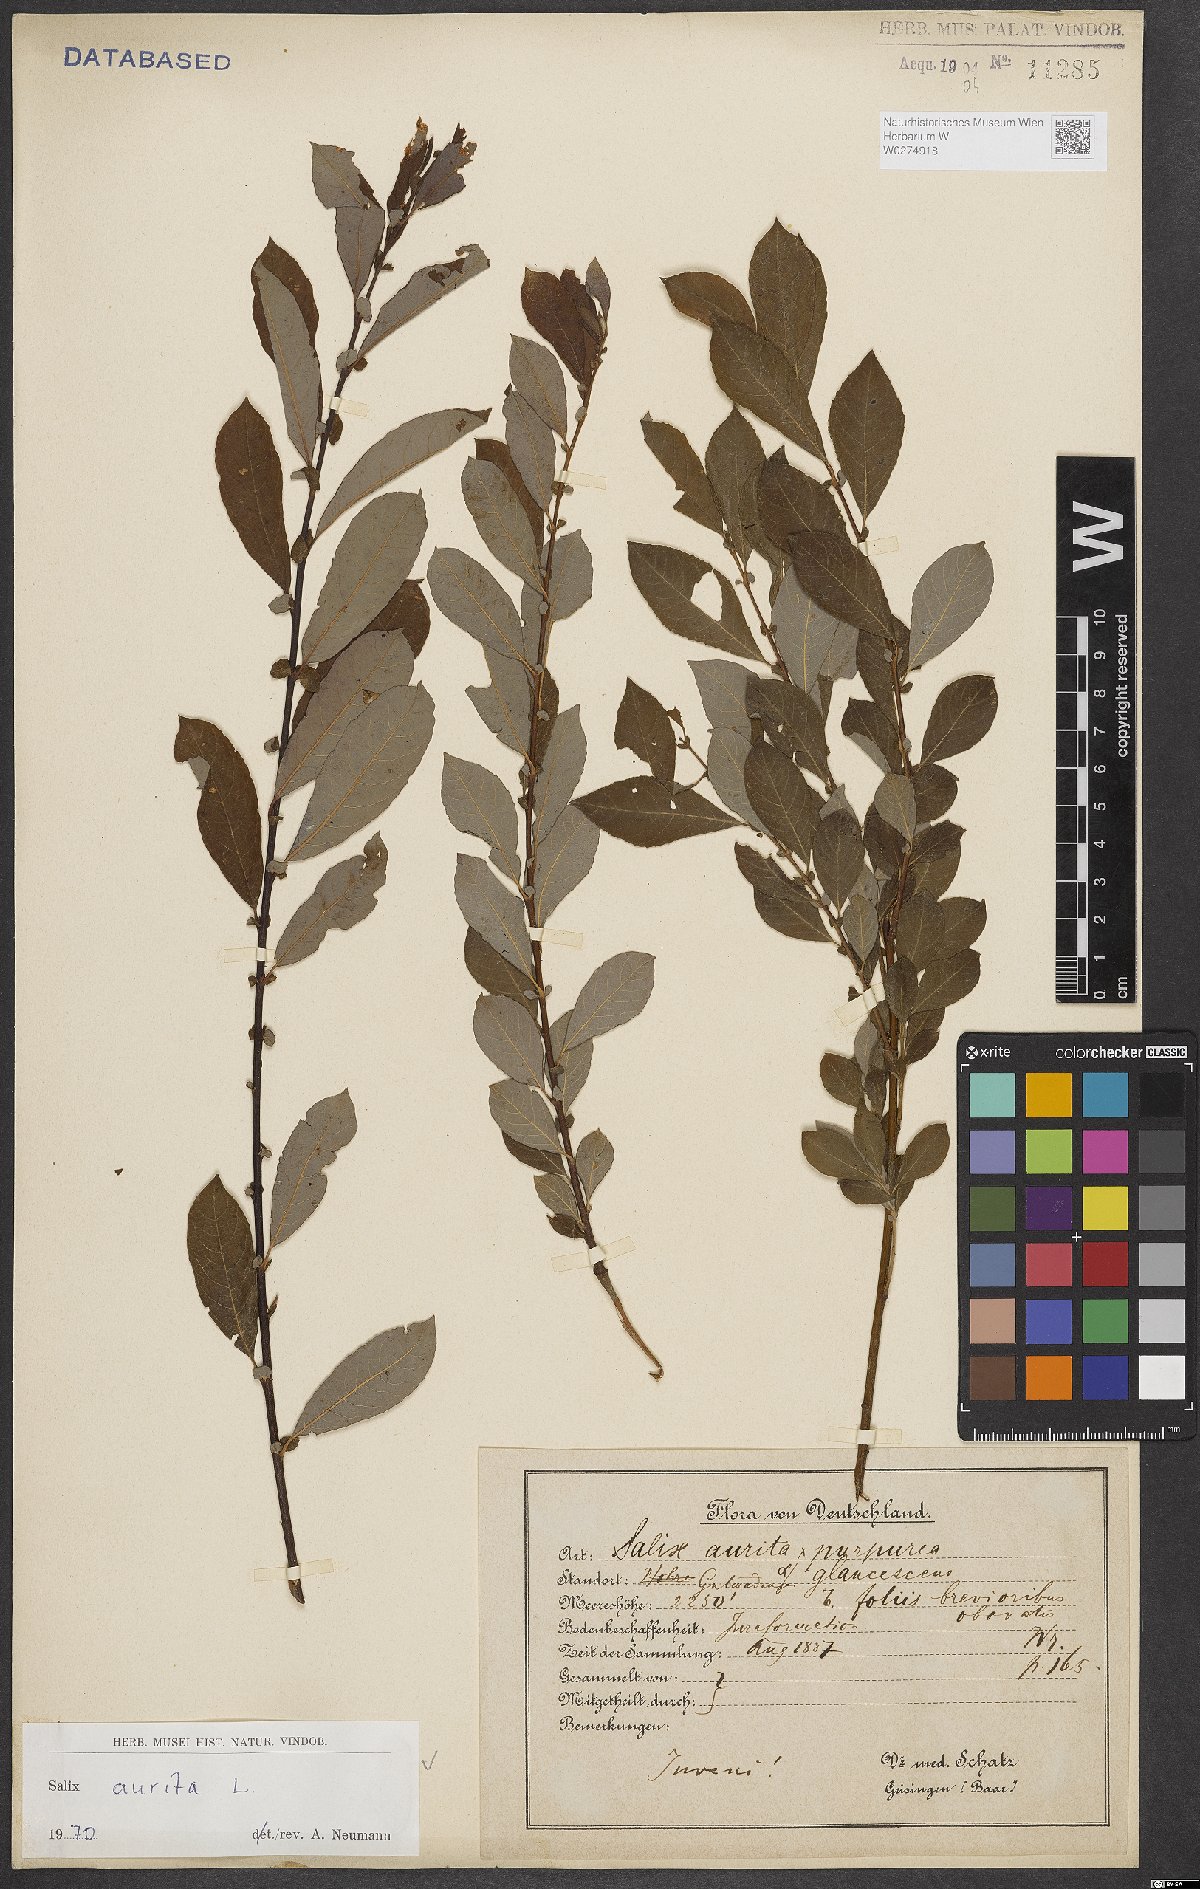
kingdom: Plantae
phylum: Tracheophyta
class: Magnoliopsida
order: Malpighiales
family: Salicaceae
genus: Salix
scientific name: Salix aurita
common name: Eared willow
